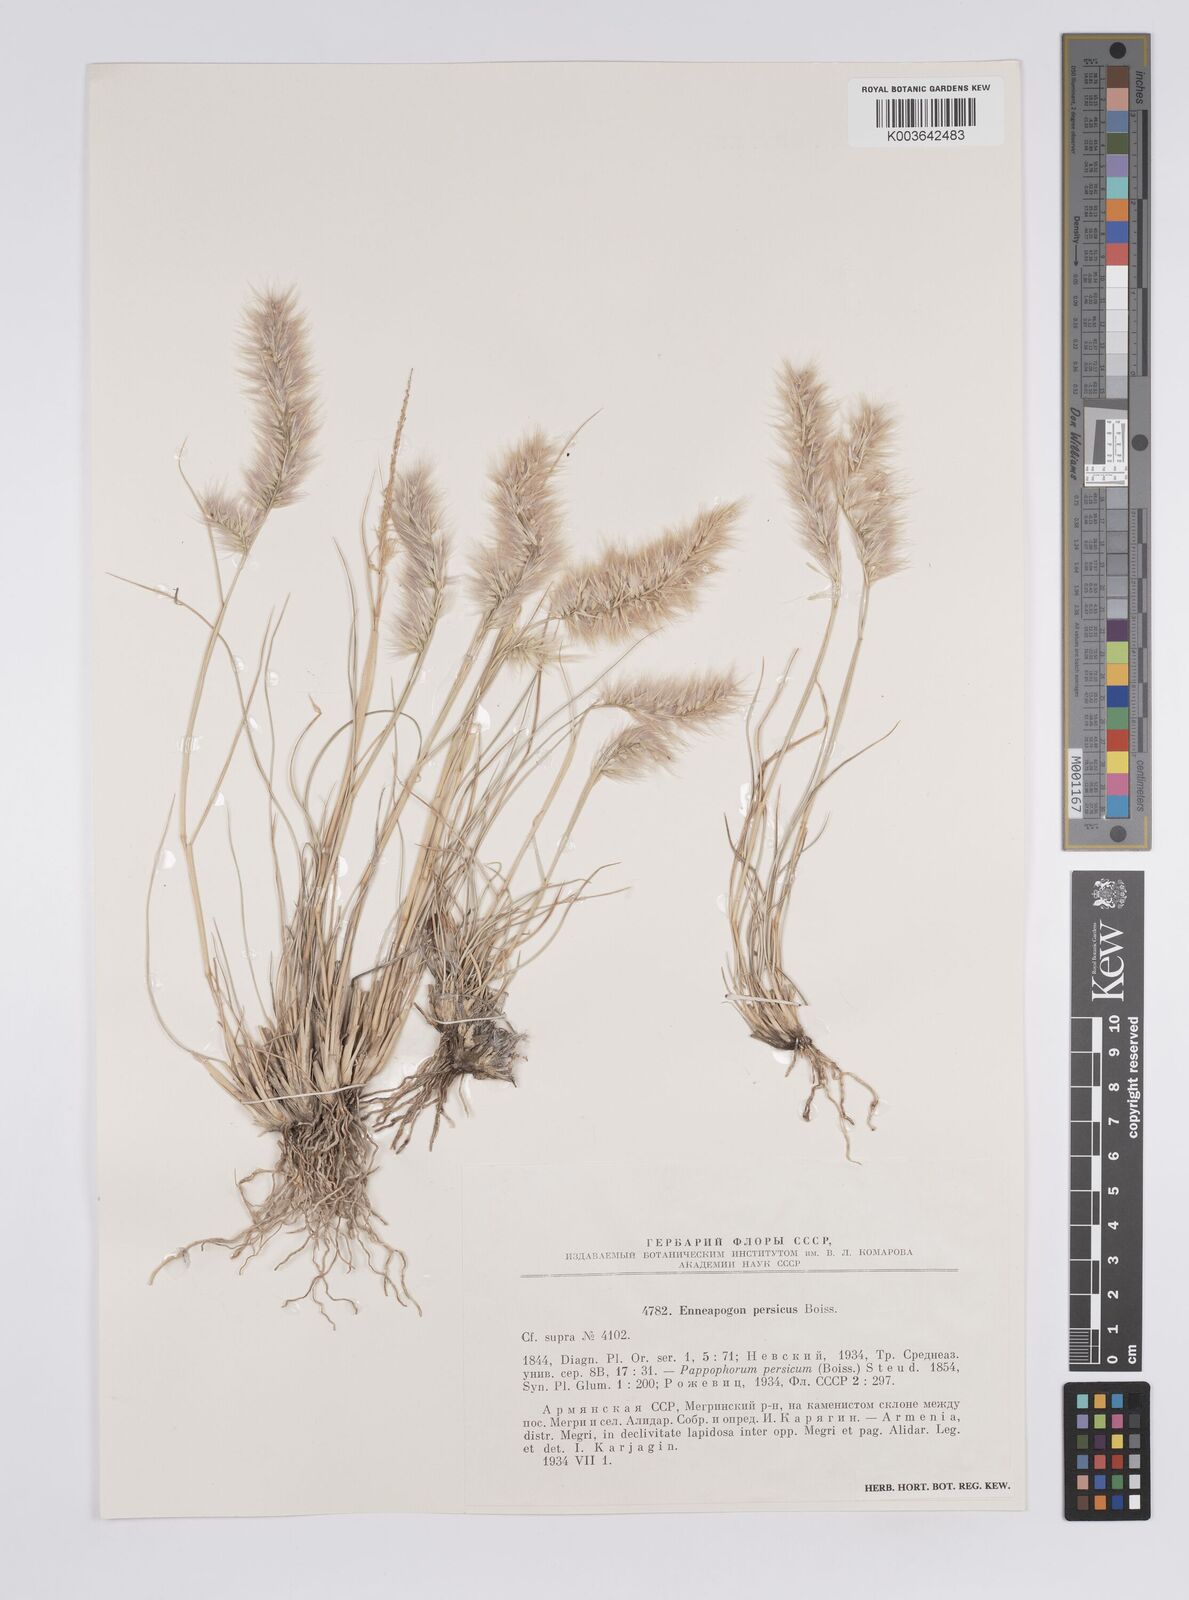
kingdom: Plantae
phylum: Tracheophyta
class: Liliopsida
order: Poales
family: Poaceae
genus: Enneapogon
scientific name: Enneapogon persicus
